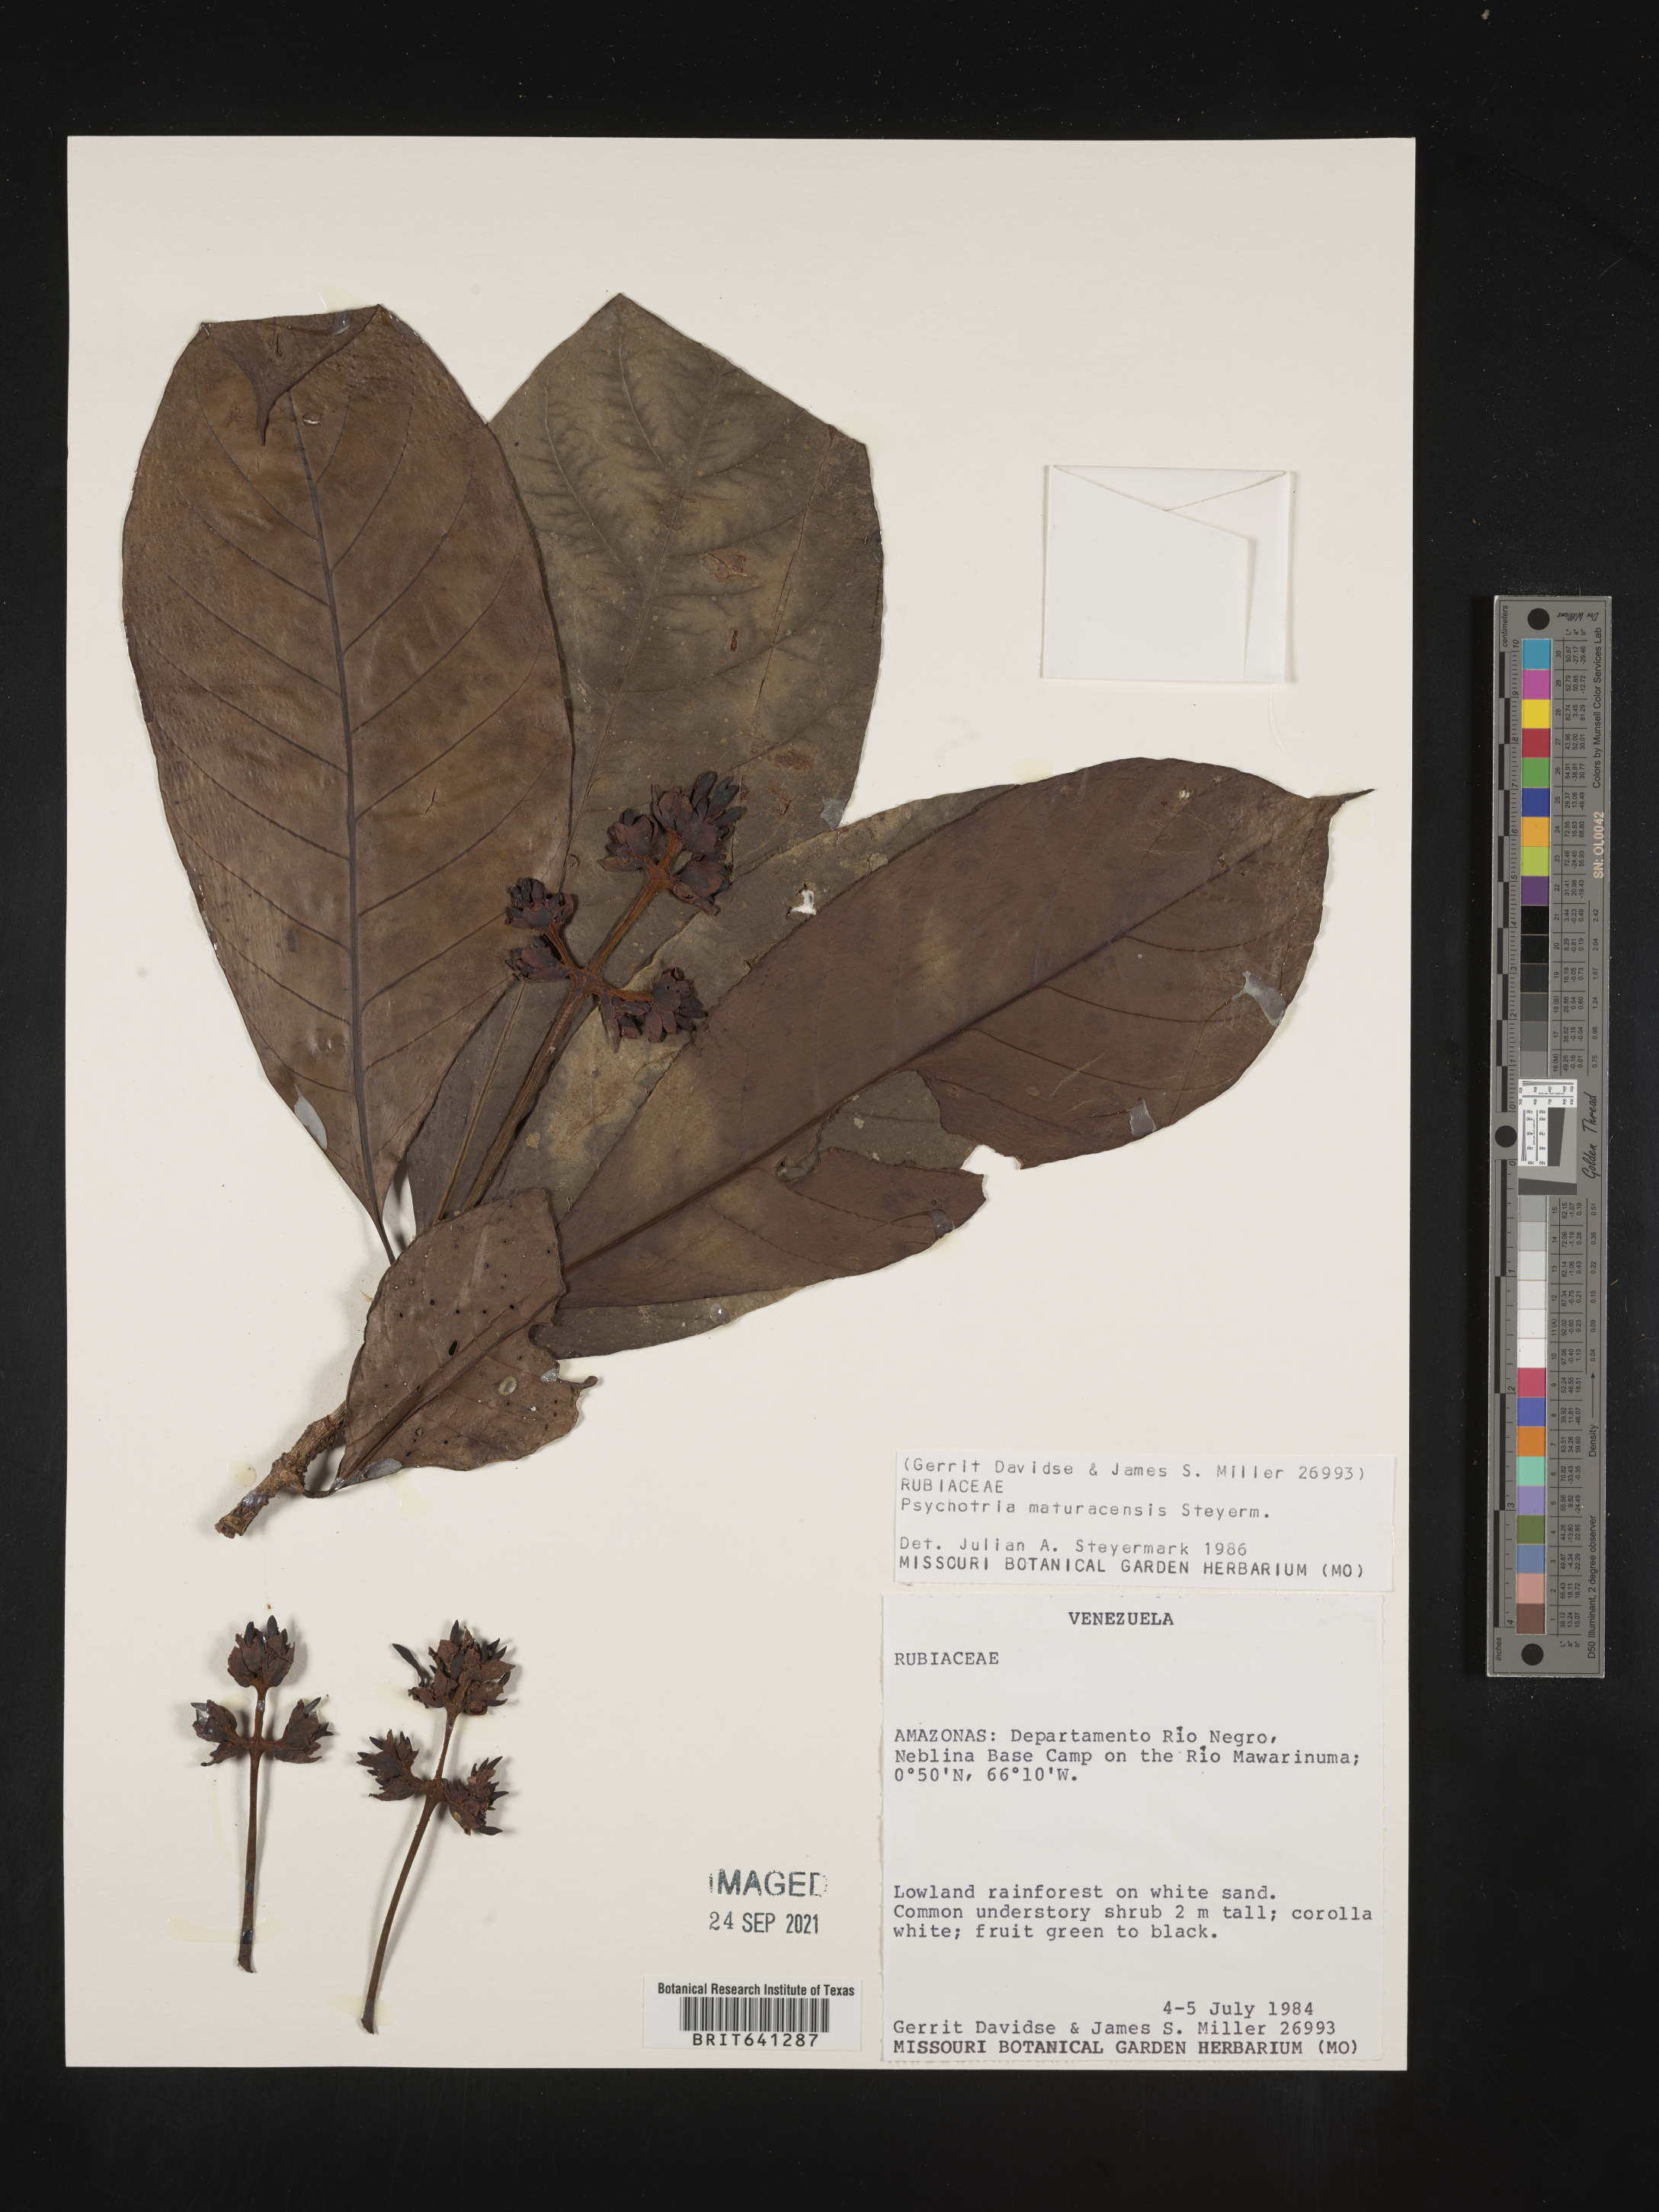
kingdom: Plantae
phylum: Tracheophyta
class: Magnoliopsida
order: Gentianales
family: Rubiaceae
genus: Psychotria
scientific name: Psychotria
